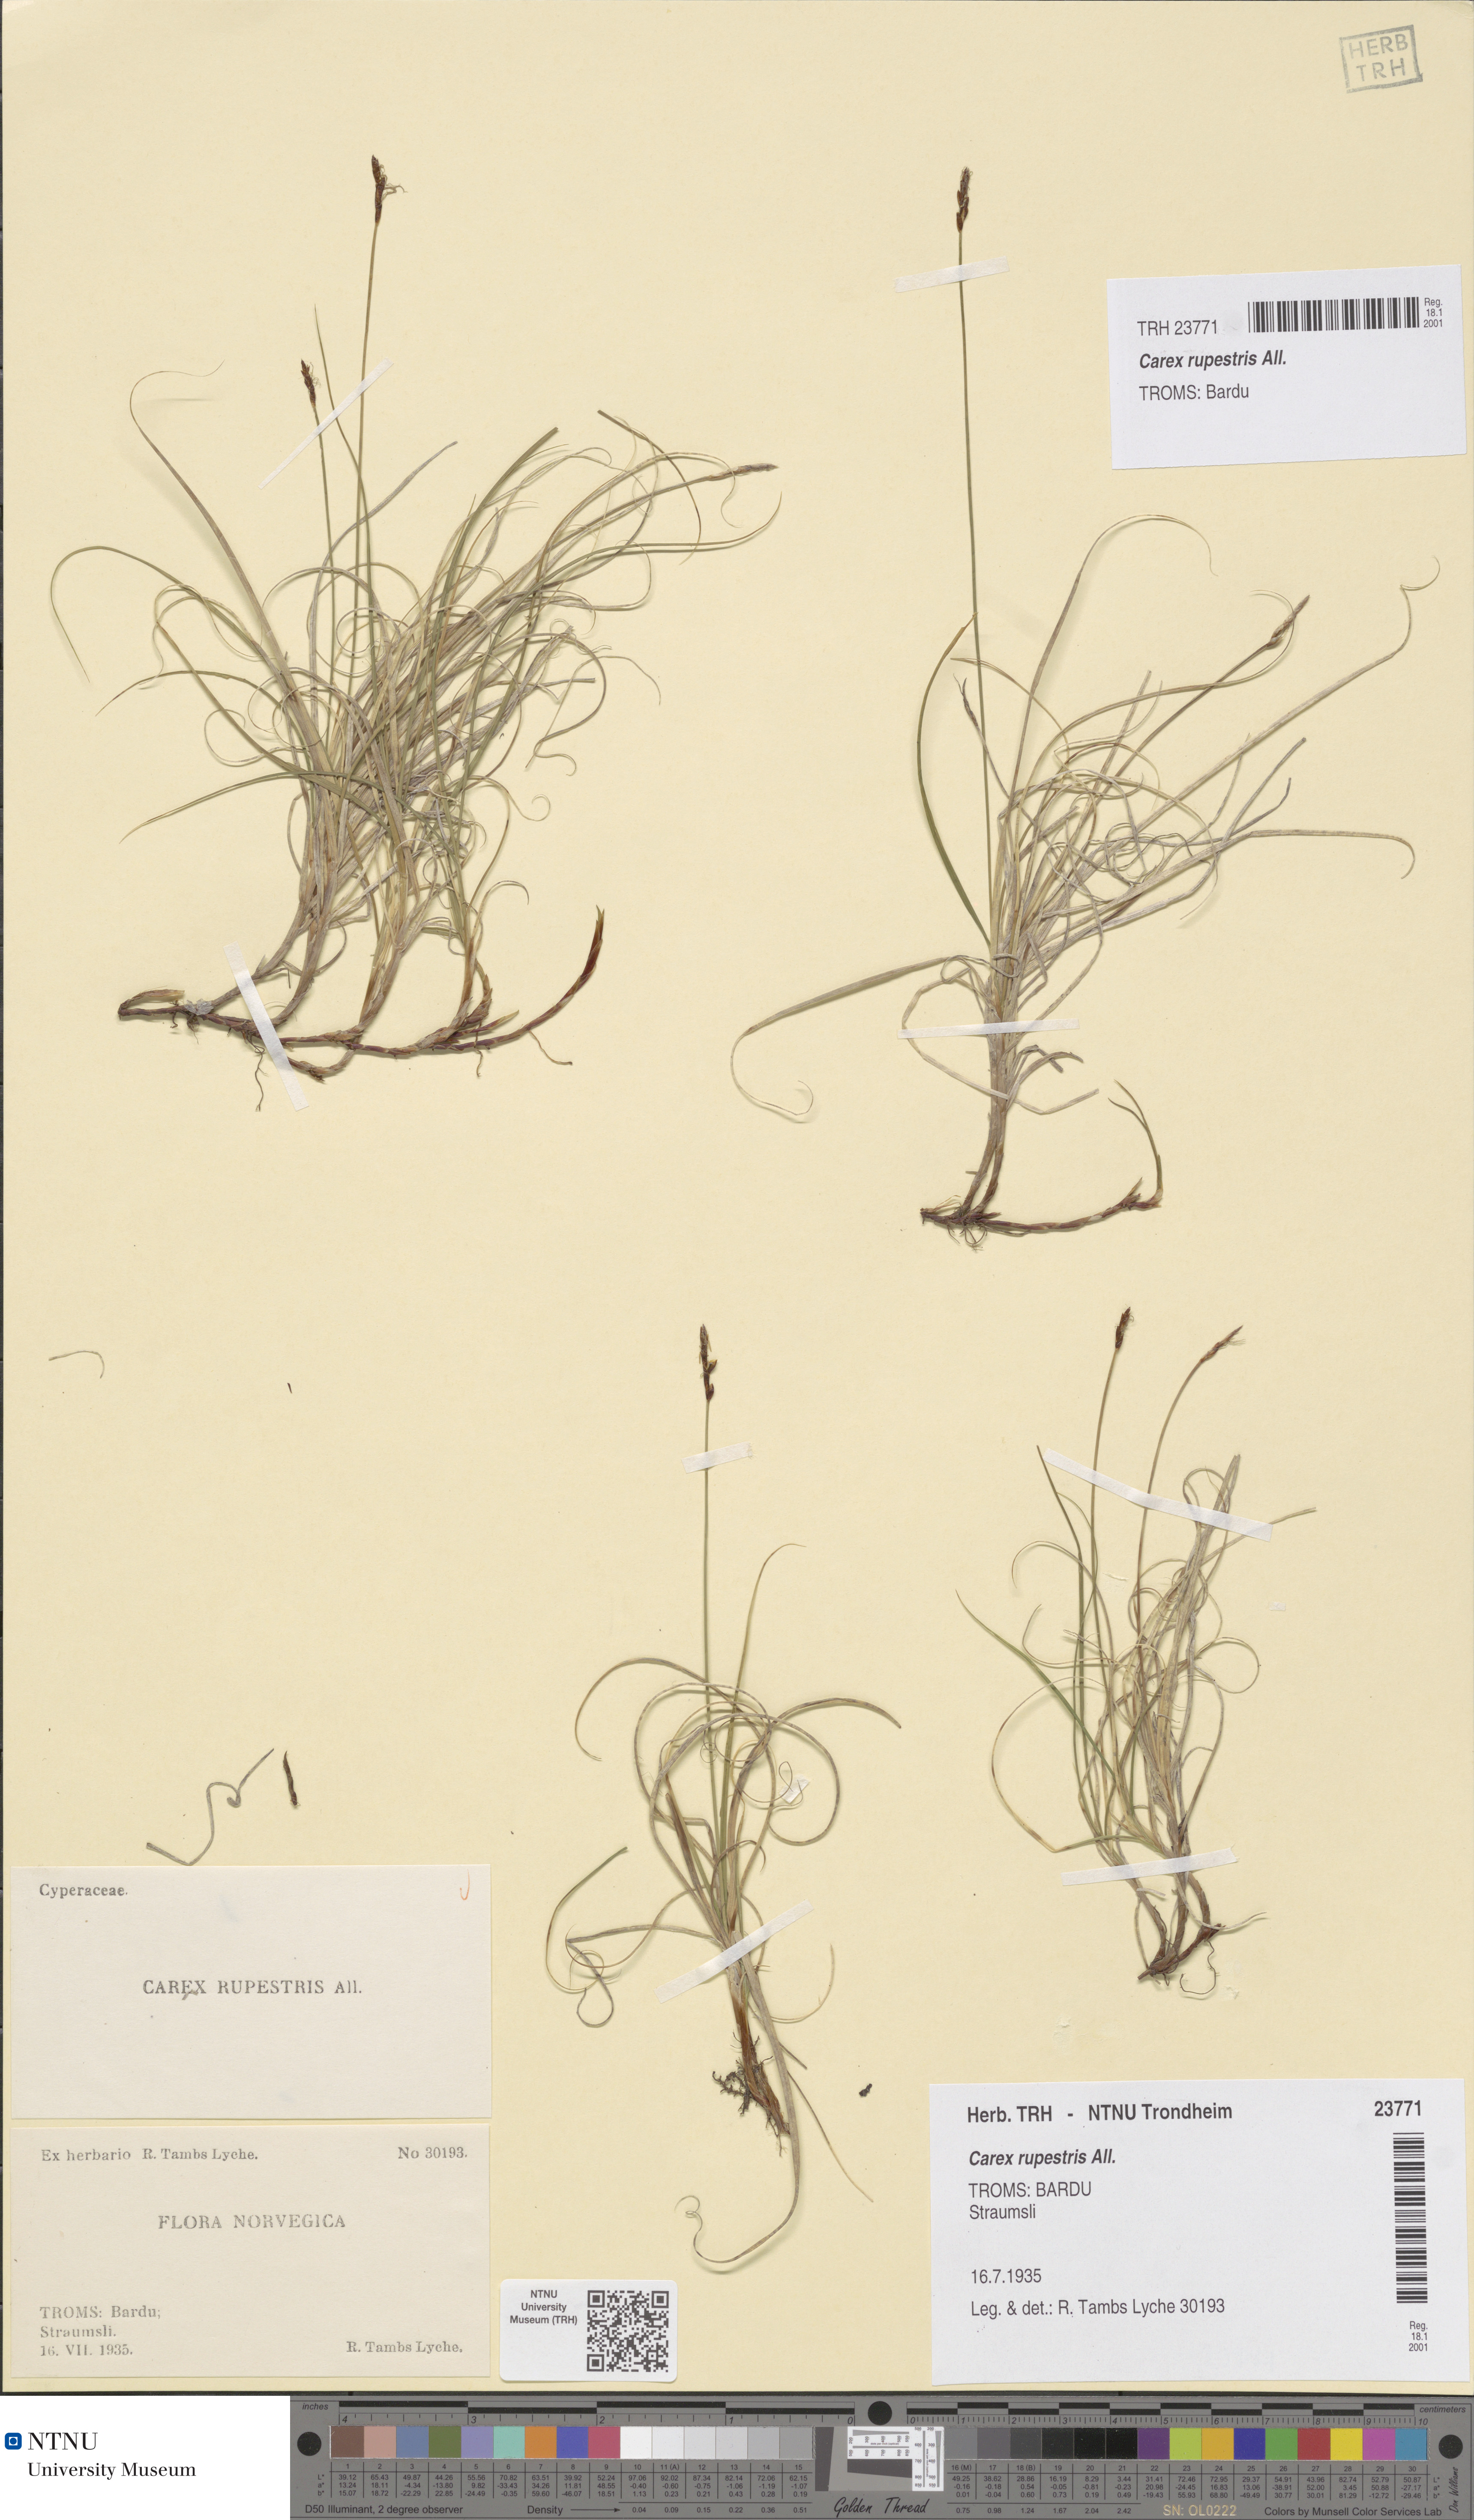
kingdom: Plantae
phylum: Tracheophyta
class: Liliopsida
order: Poales
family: Cyperaceae
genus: Carex
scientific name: Carex rupestris
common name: Rock sedge
